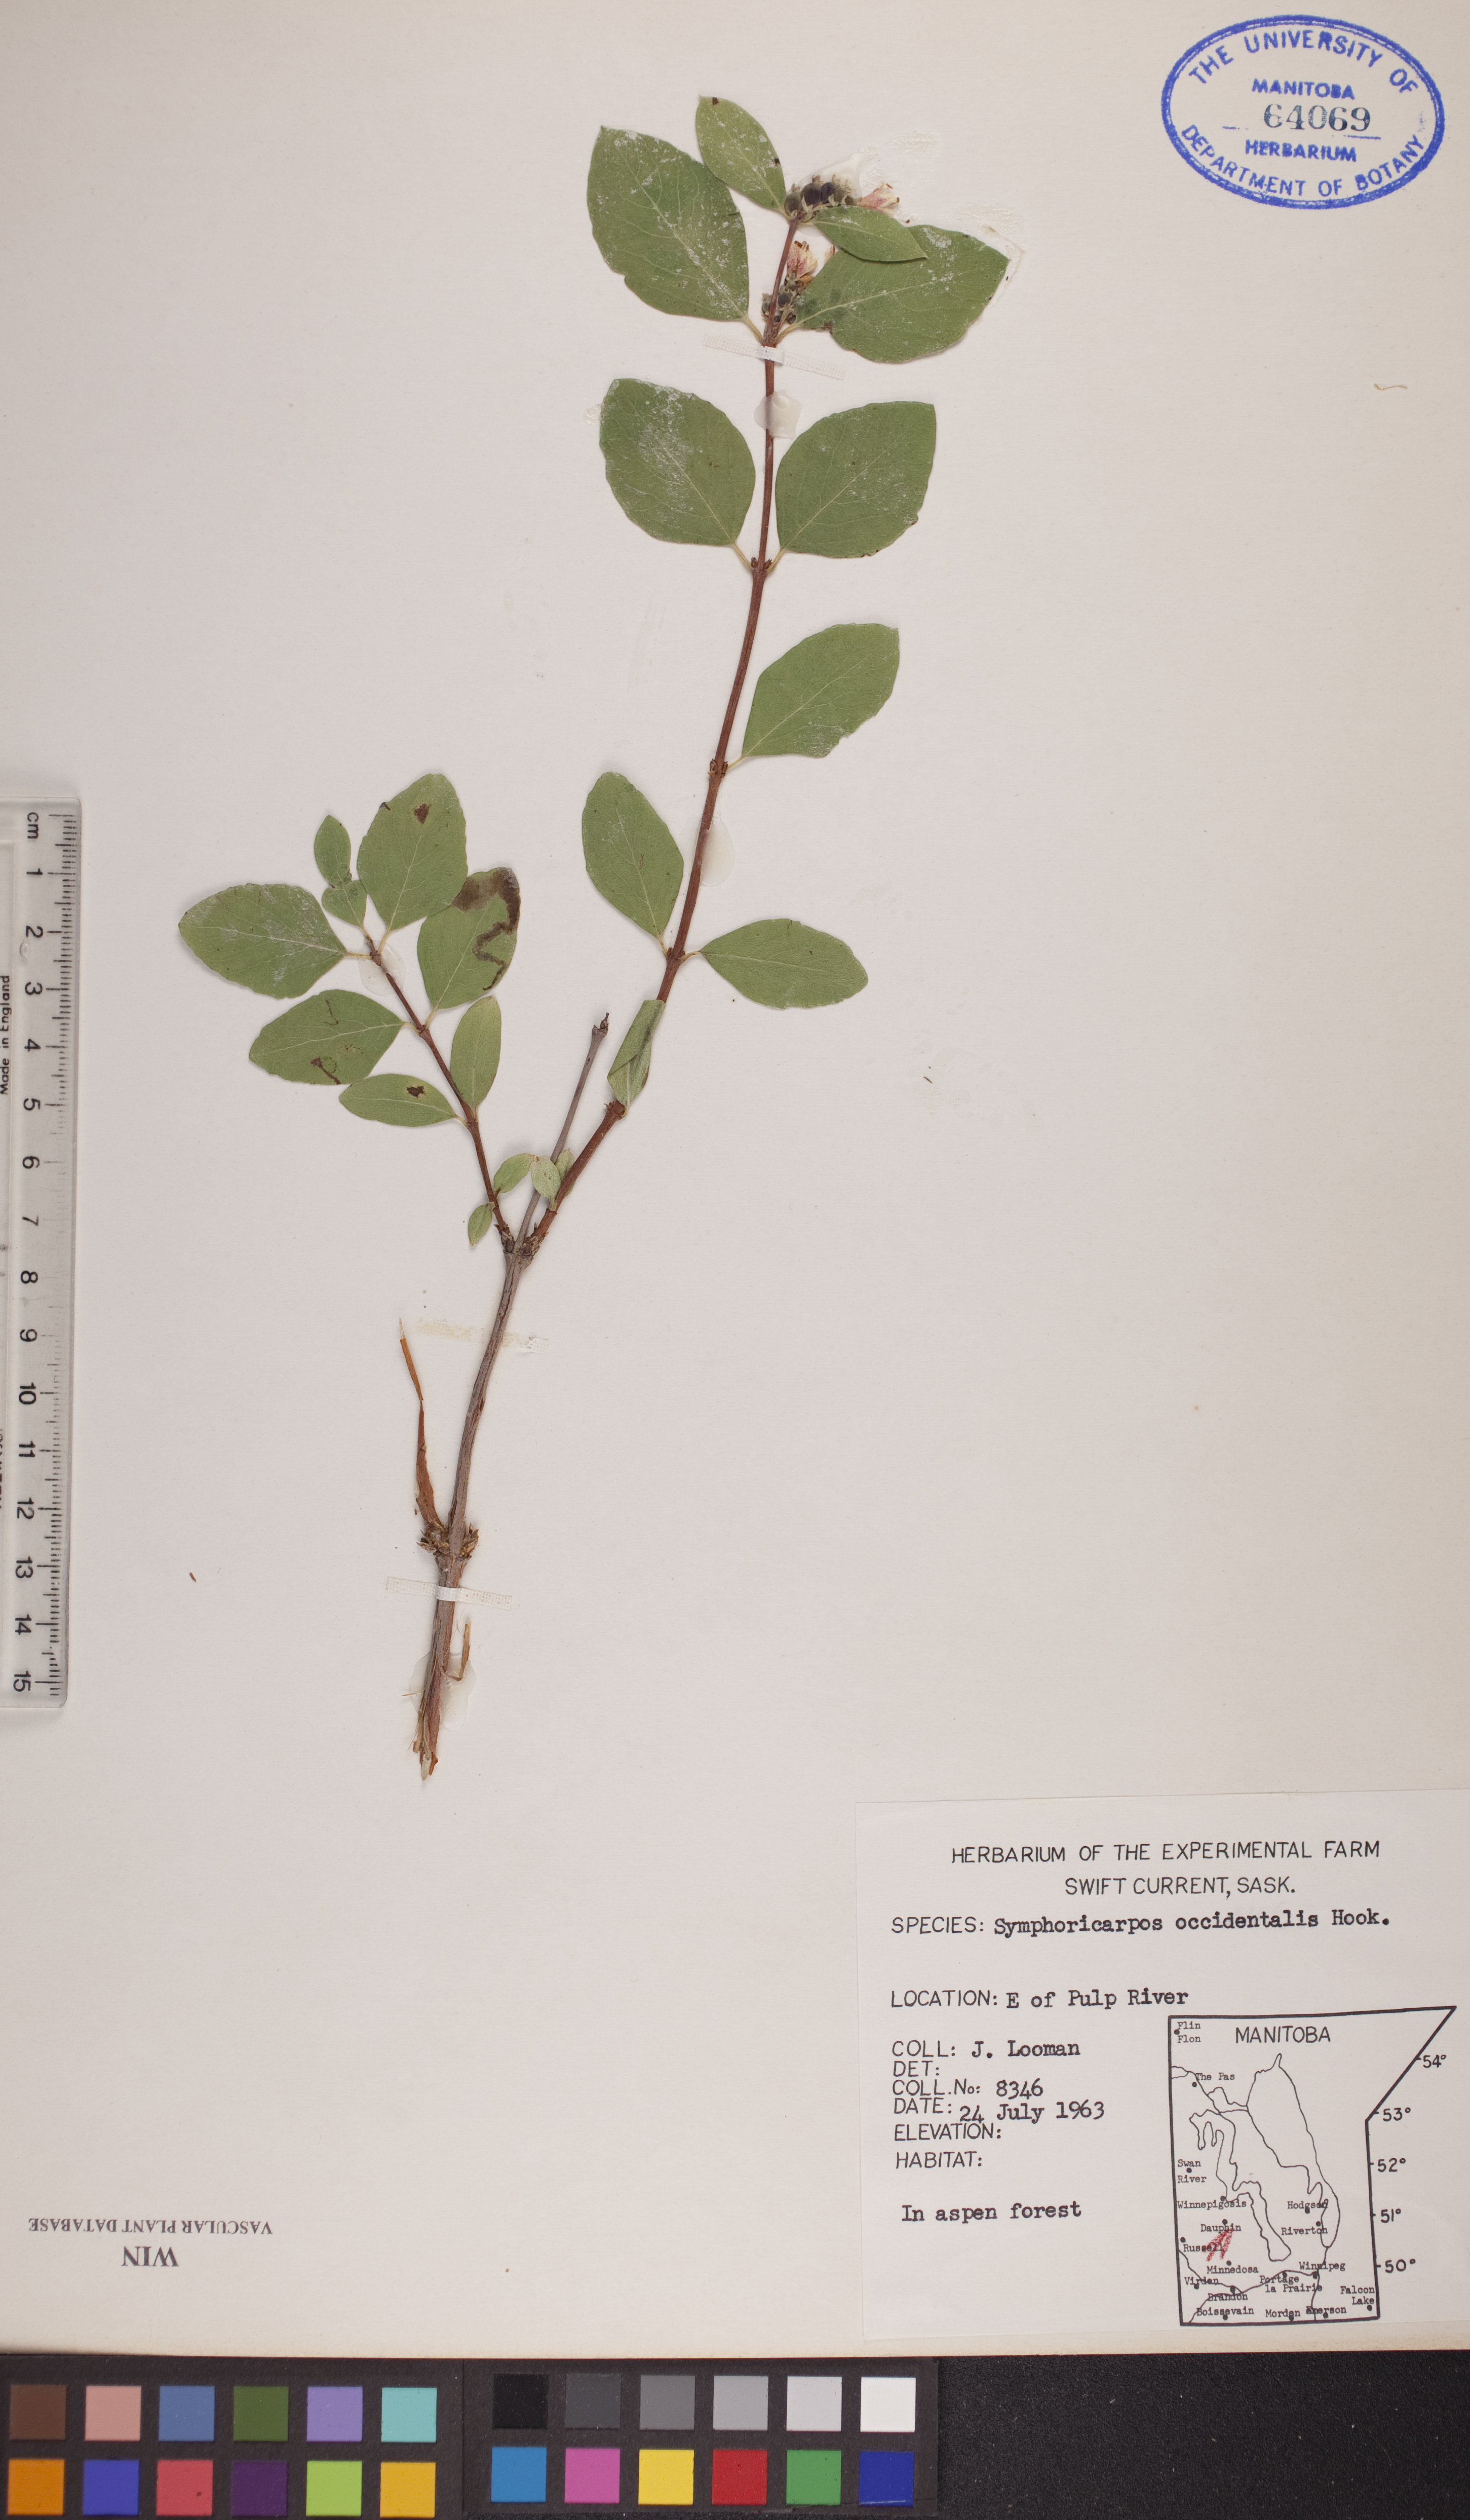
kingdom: Plantae
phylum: Tracheophyta
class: Magnoliopsida
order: Dipsacales
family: Caprifoliaceae
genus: Symphoricarpos
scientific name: Symphoricarpos occidentalis
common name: Wolfberry
